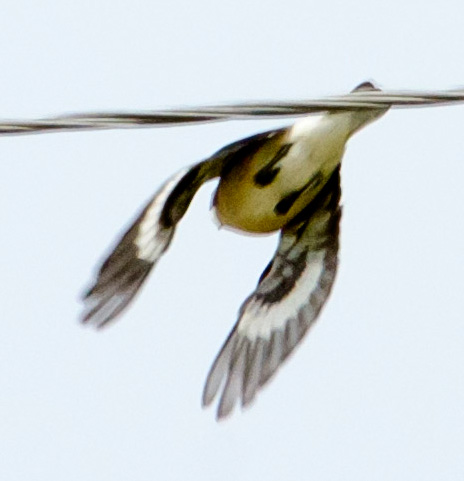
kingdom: Animalia
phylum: Chordata
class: Aves
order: Passeriformes
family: Laniidae
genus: Lanius
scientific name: Lanius minor
